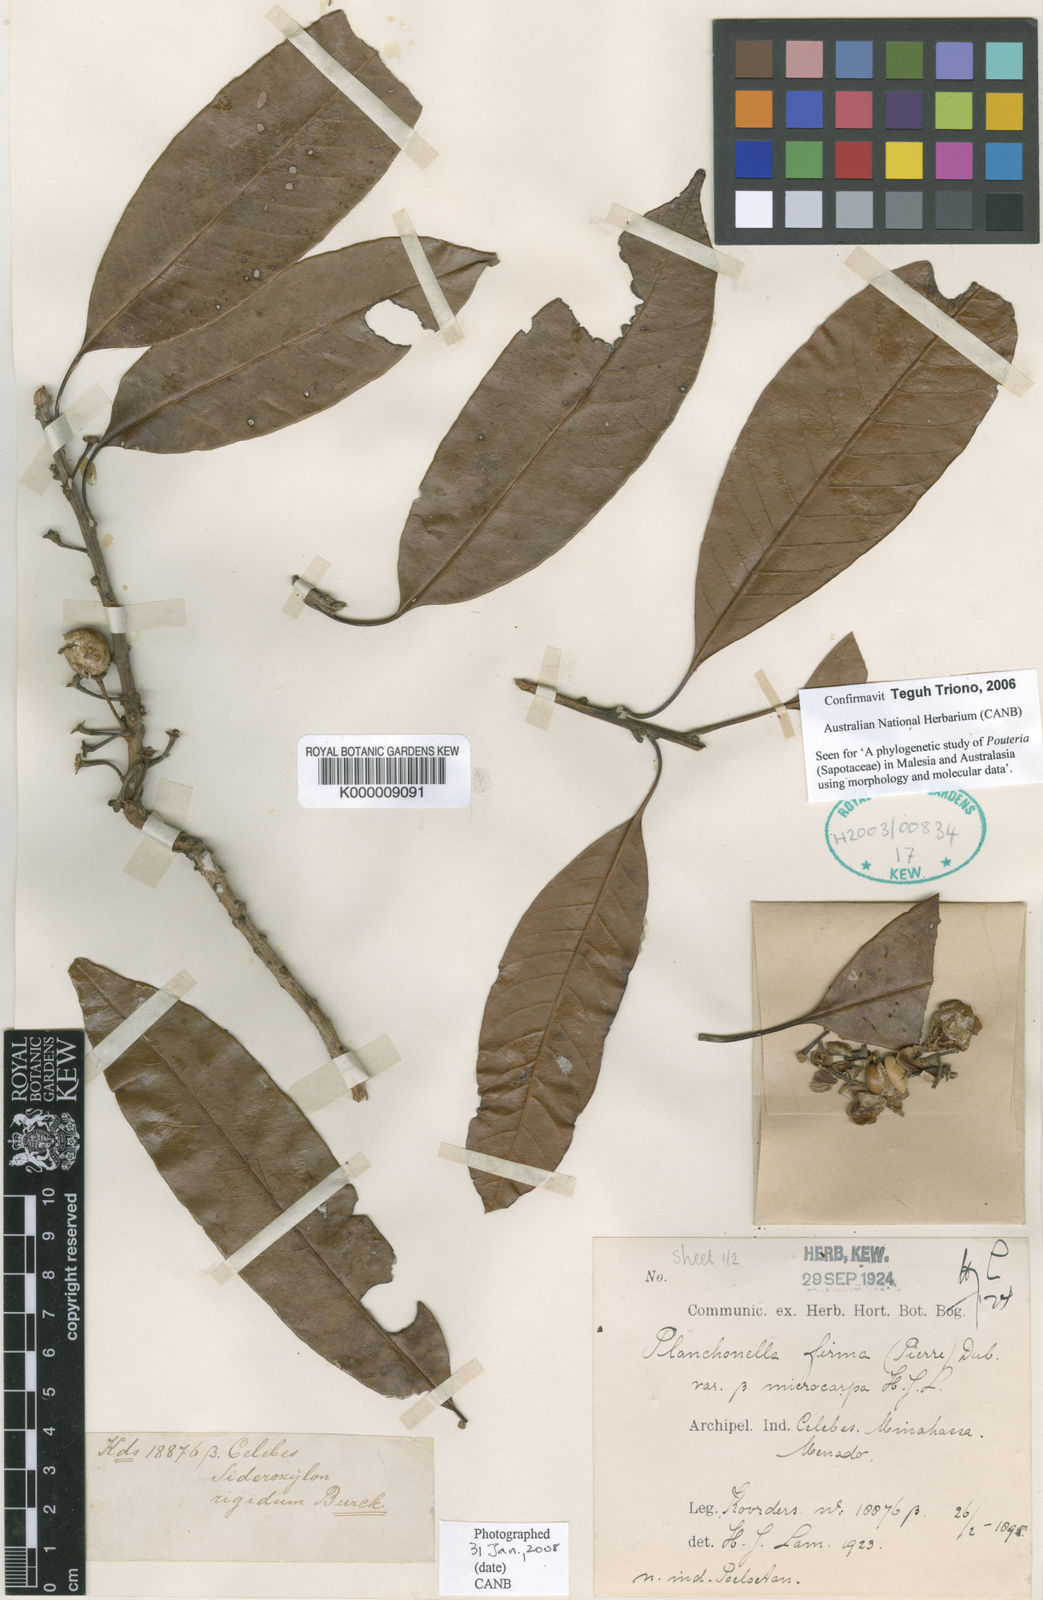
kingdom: Plantae
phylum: Tracheophyta
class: Magnoliopsida
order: Ericales
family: Sapotaceae
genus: Pleioluma
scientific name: Pleioluma firma
